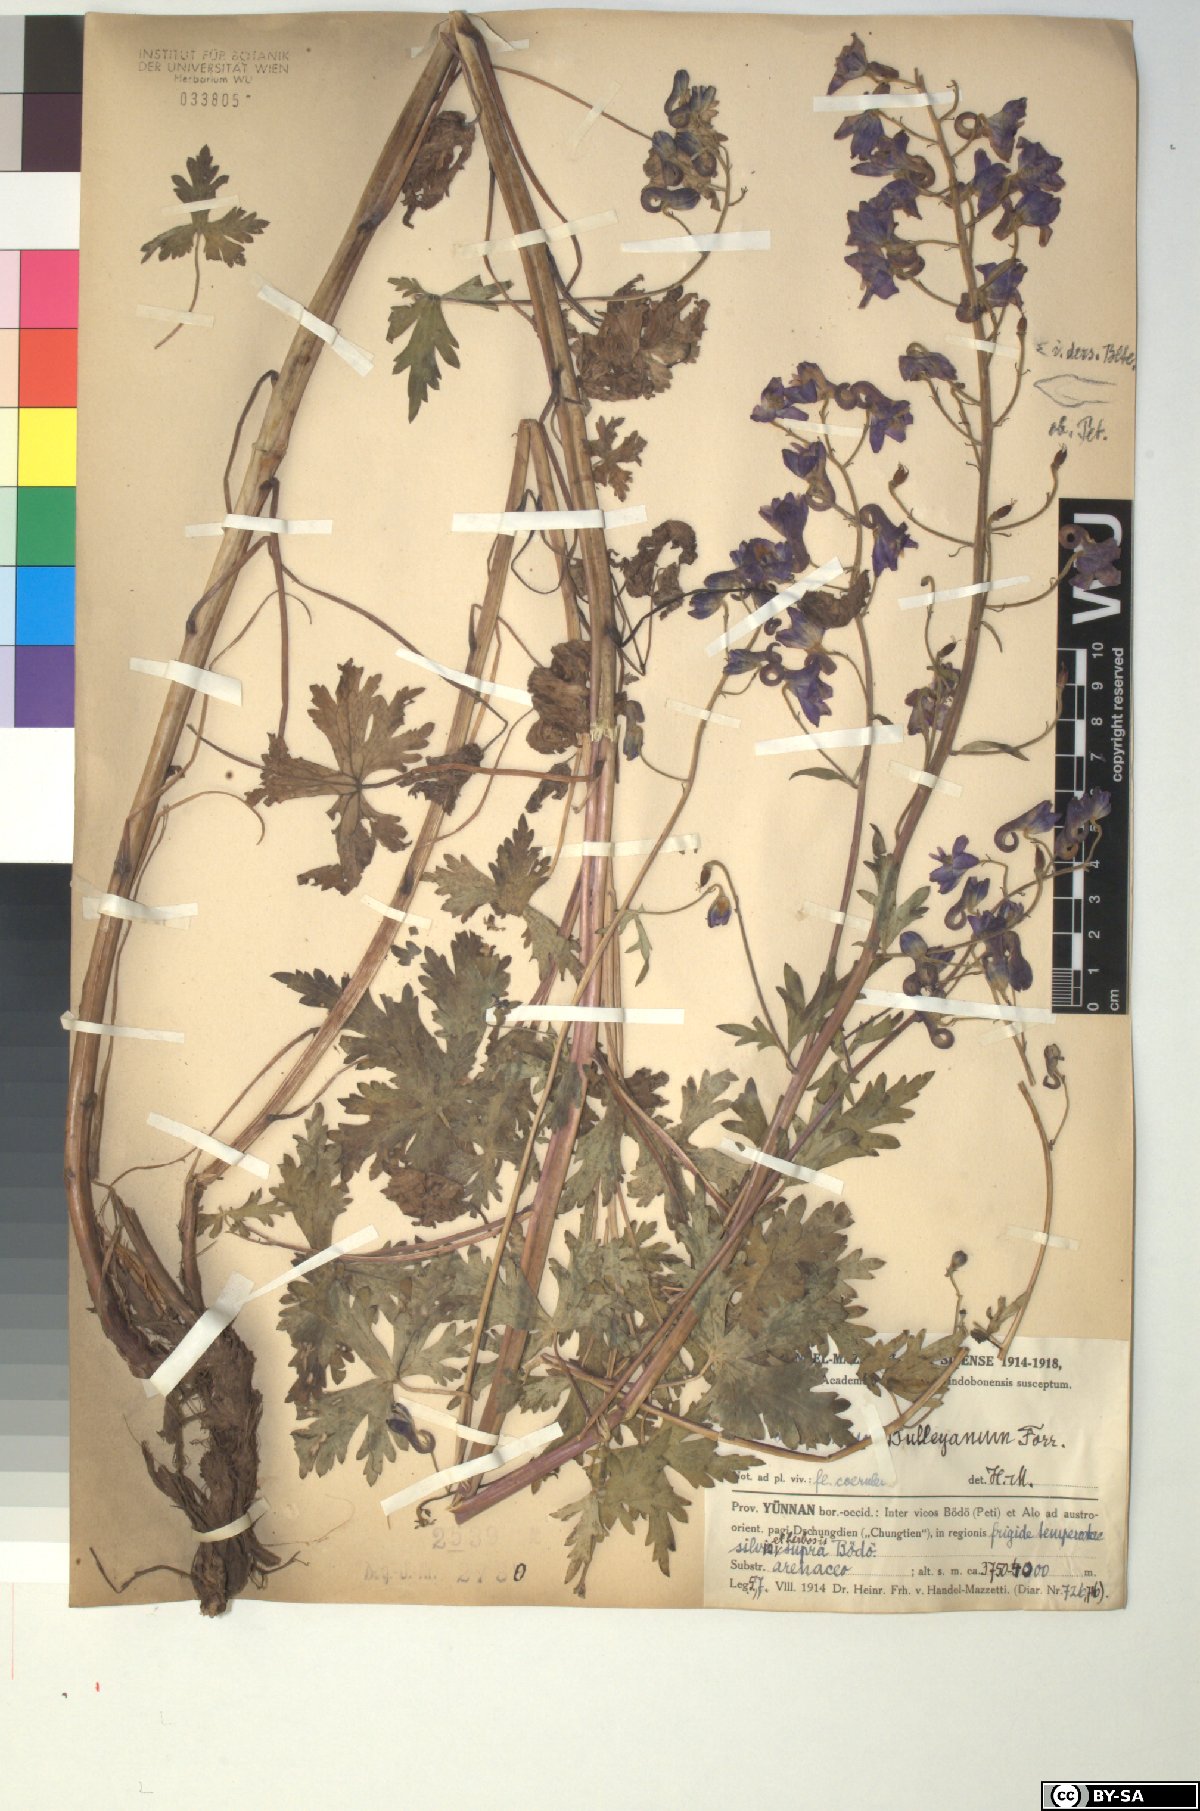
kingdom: Plantae
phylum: Tracheophyta
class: Magnoliopsida
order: Ranunculales
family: Ranunculaceae
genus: Delphinium
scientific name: Delphinium bulleyanum
